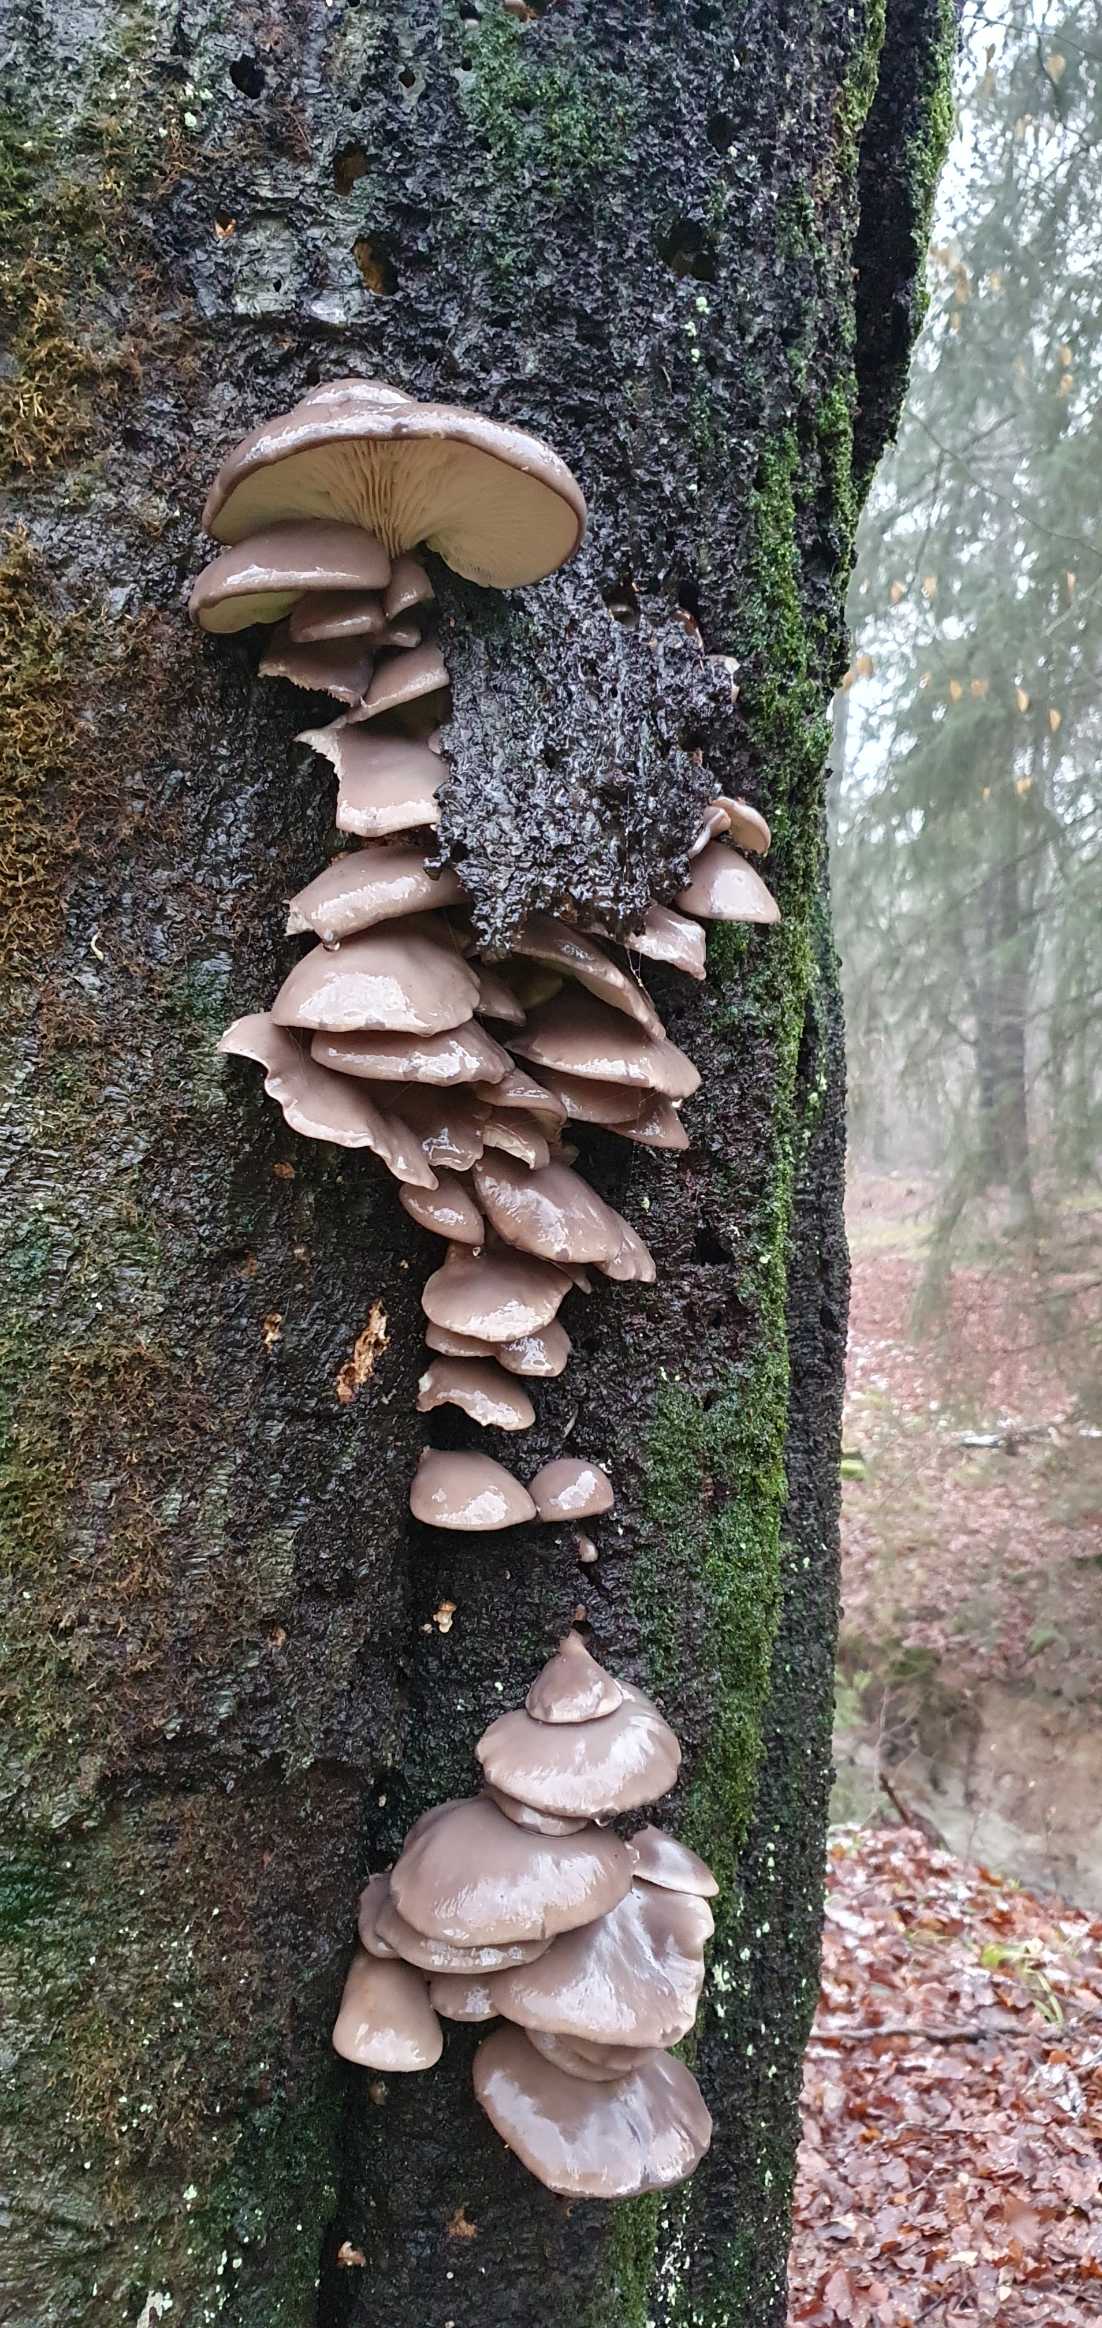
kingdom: Fungi
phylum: Basidiomycota
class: Agaricomycetes
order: Agaricales
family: Pleurotaceae
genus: Pleurotus
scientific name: Pleurotus ostreatus
